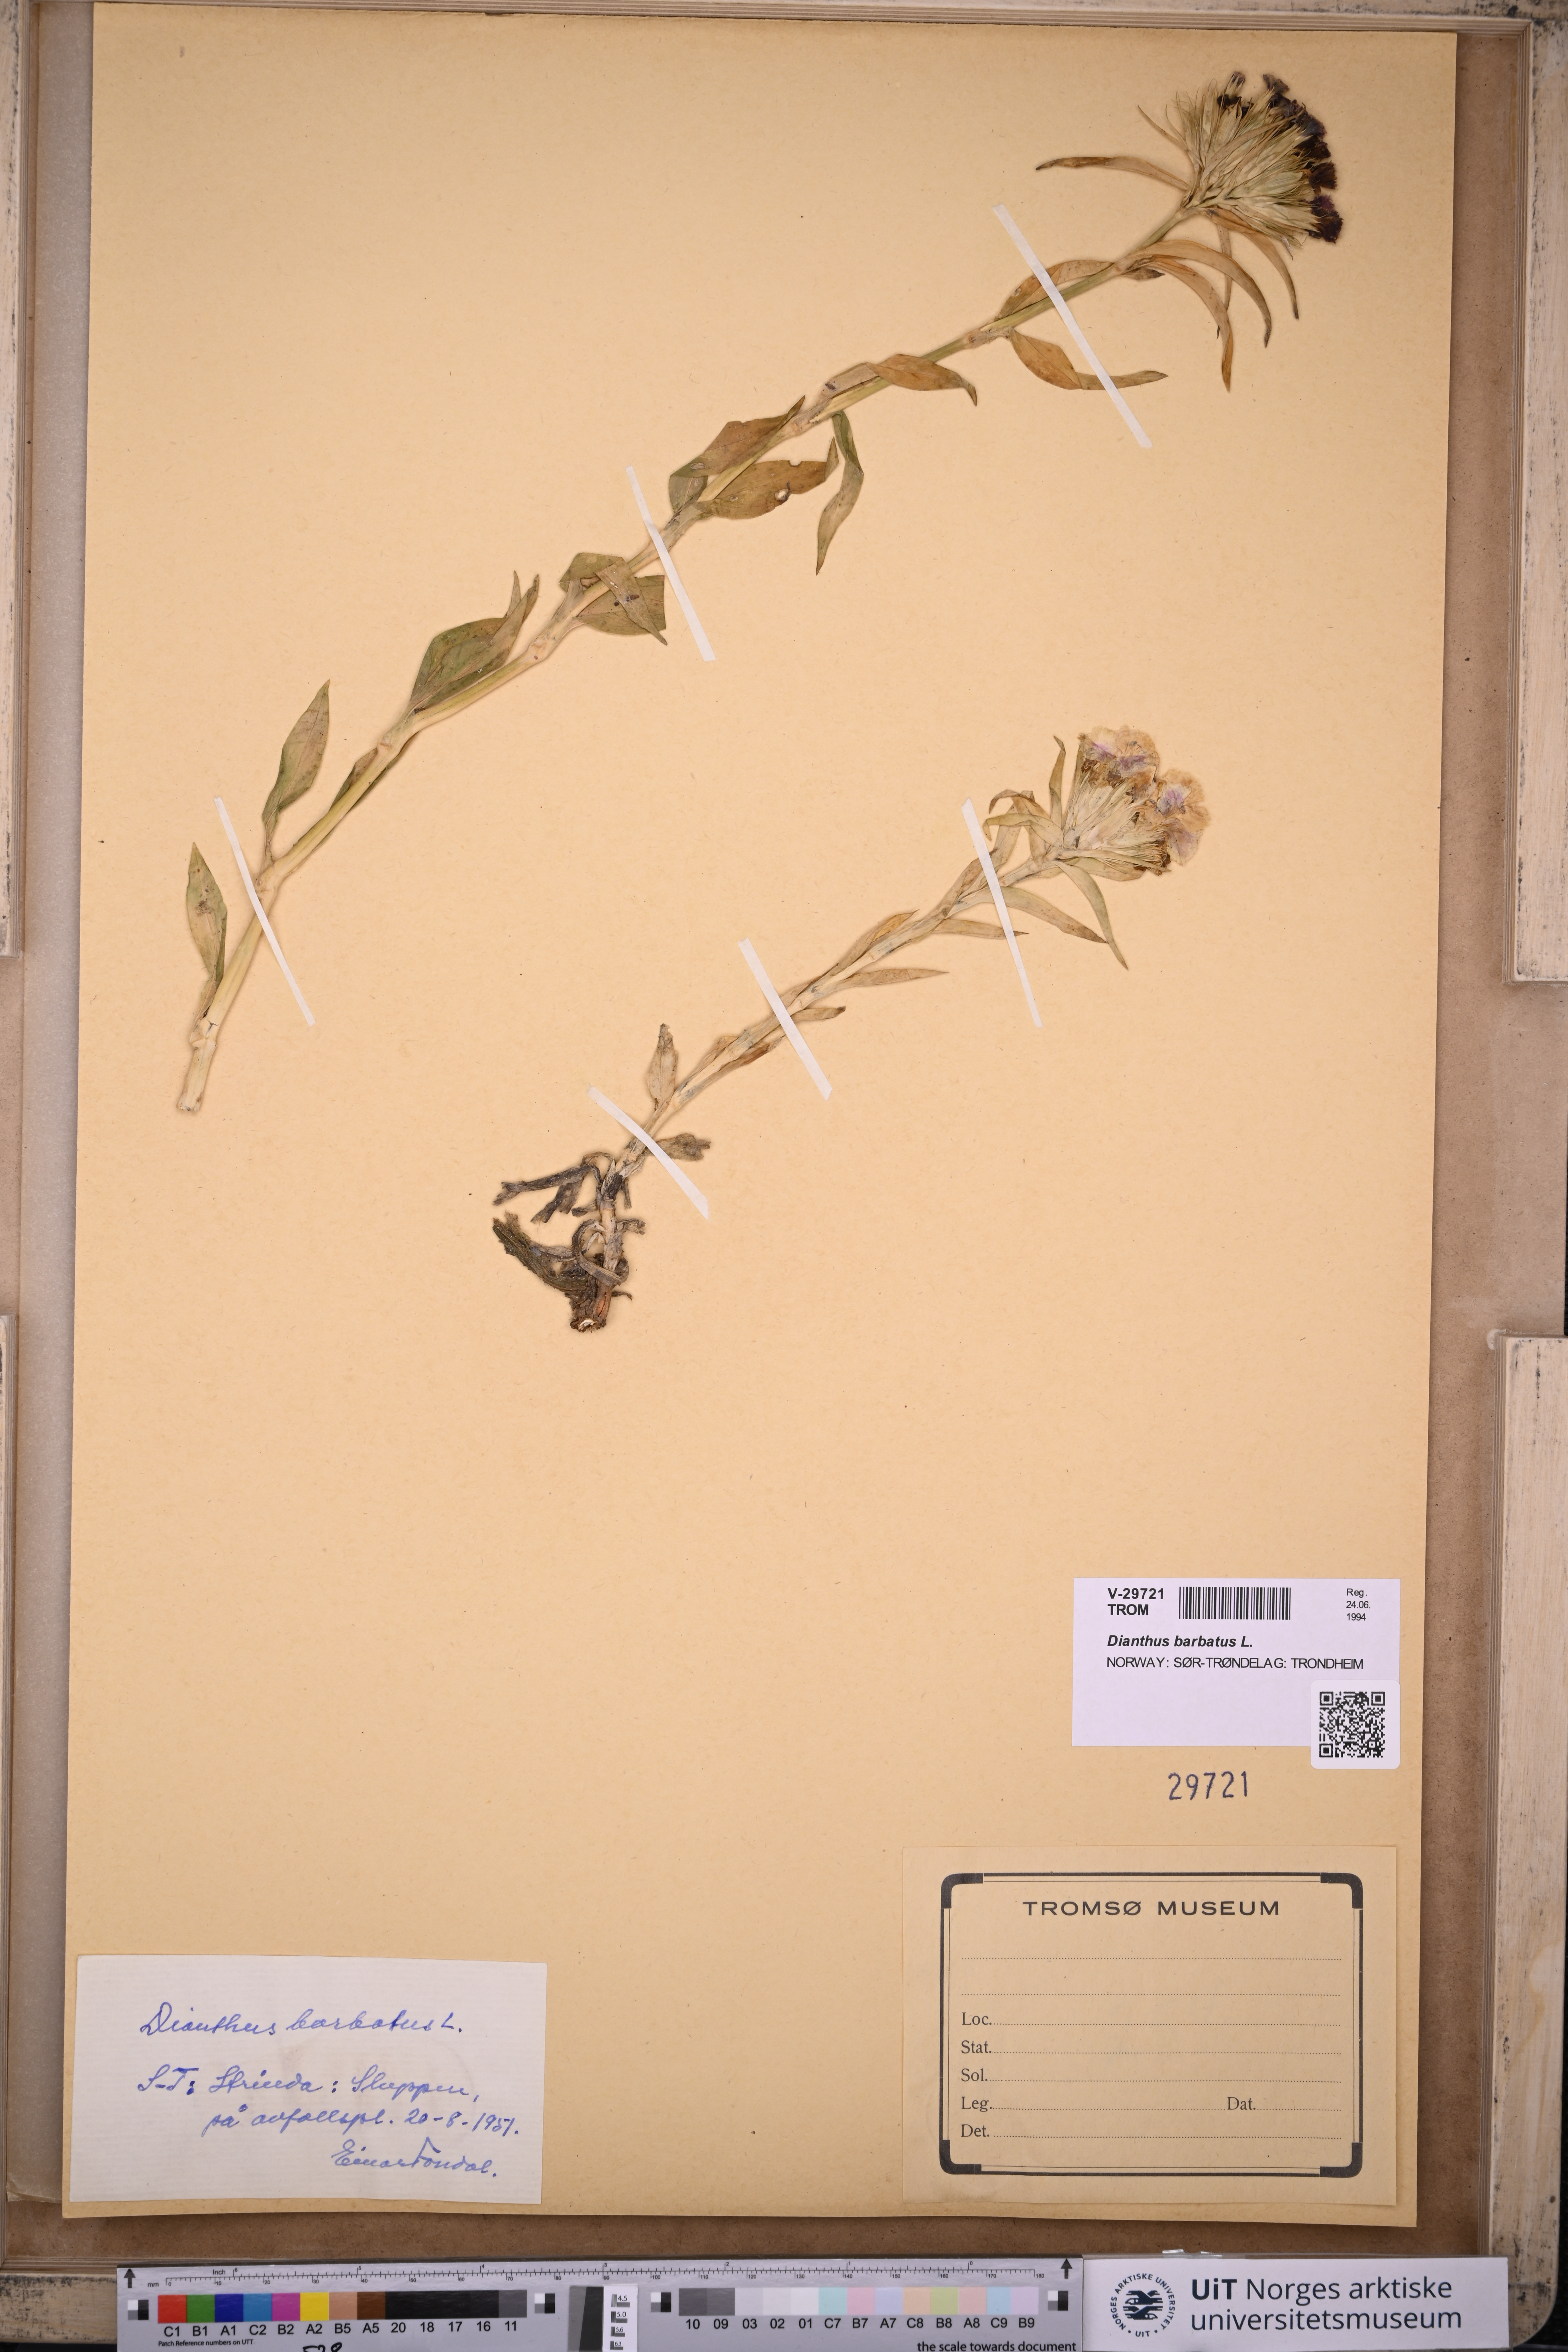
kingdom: Plantae
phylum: Tracheophyta
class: Magnoliopsida
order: Caryophyllales
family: Caryophyllaceae
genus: Dianthus
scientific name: Dianthus barbatus
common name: Sweet-william
